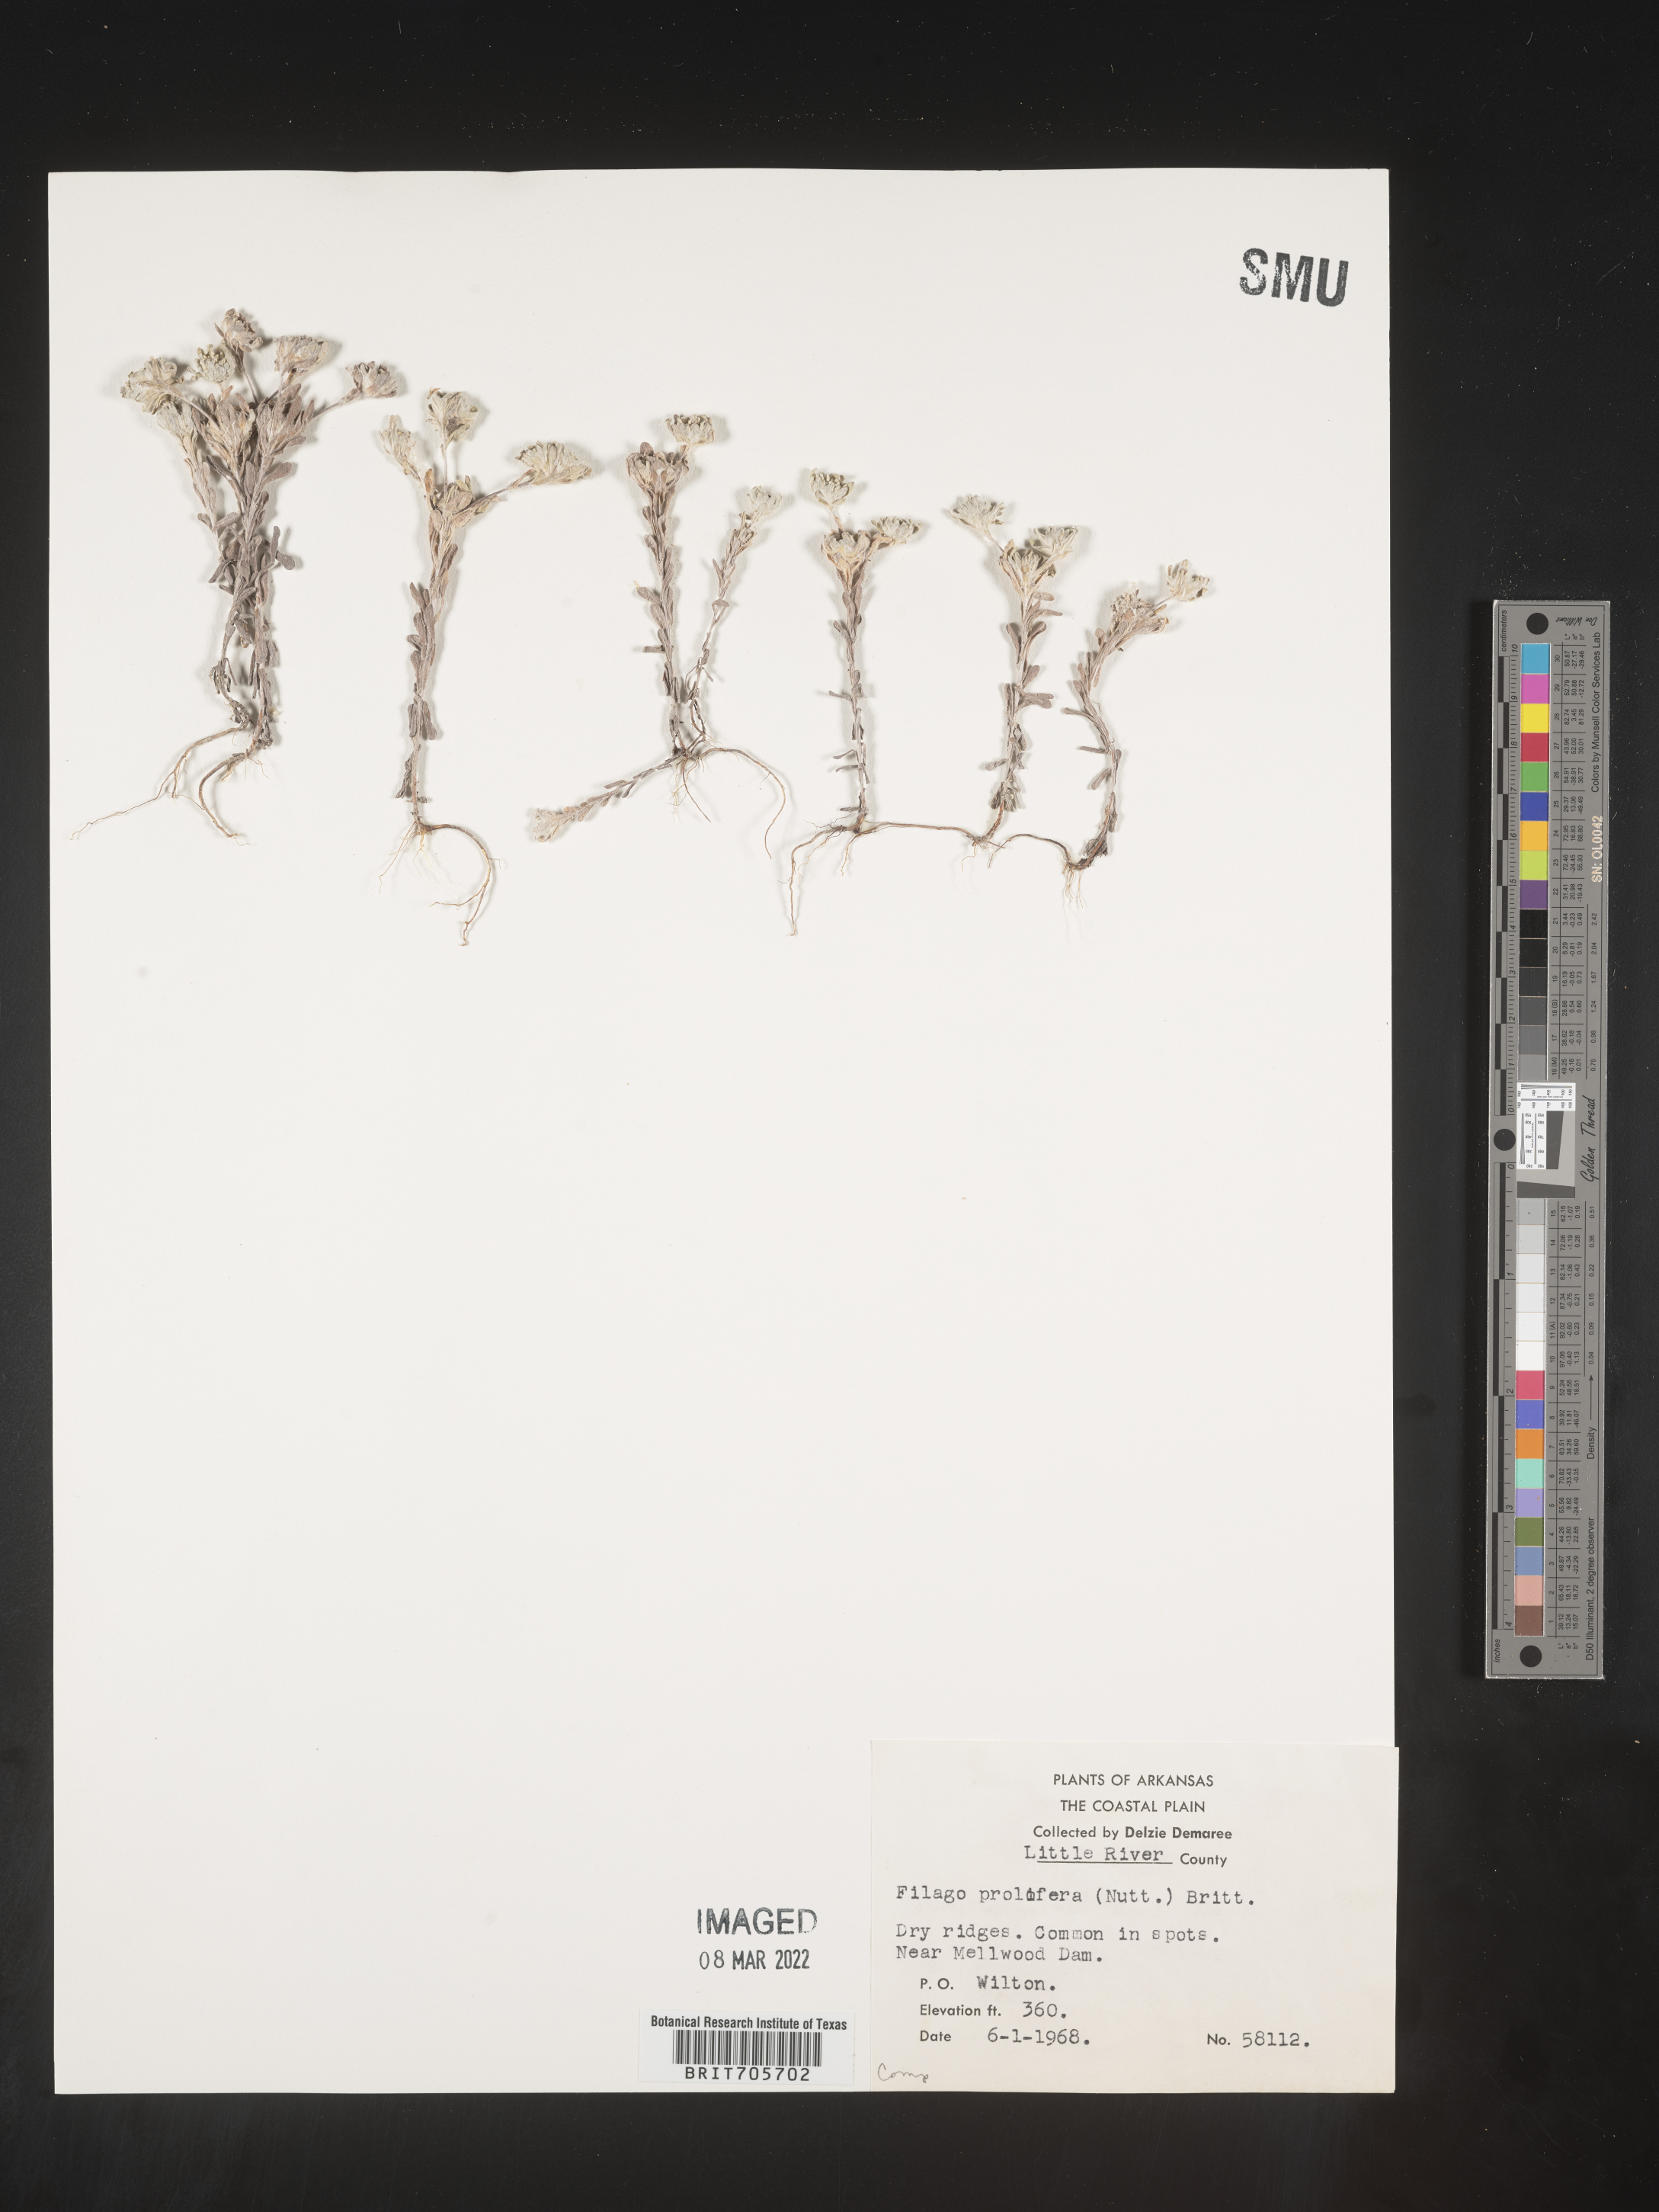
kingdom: Plantae
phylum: Tracheophyta
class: Magnoliopsida
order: Asterales
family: Asteraceae
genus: Diaperia
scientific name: Diaperia prolifera
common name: Big-head rabbit-tobacco
